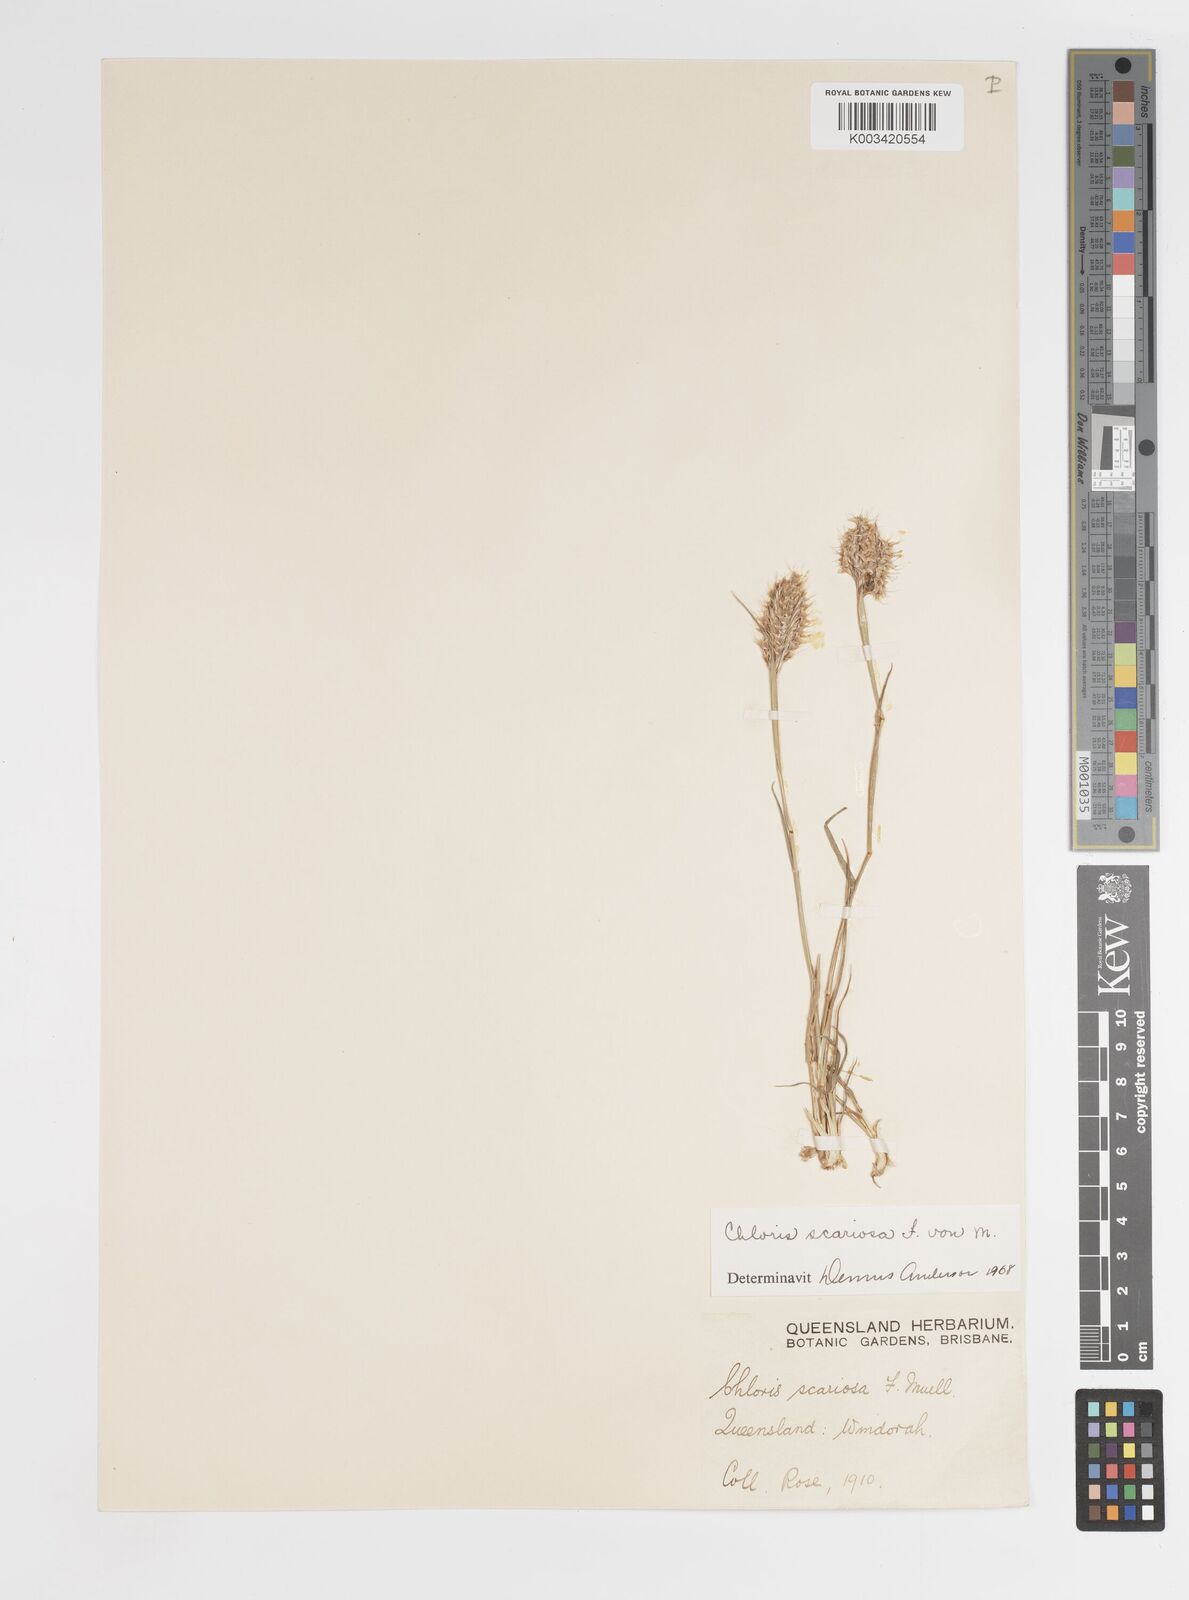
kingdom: Plantae
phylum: Tracheophyta
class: Liliopsida
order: Poales
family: Poaceae
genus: Oxychloris
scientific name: Oxychloris scariosa
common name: Winged windmill grass
